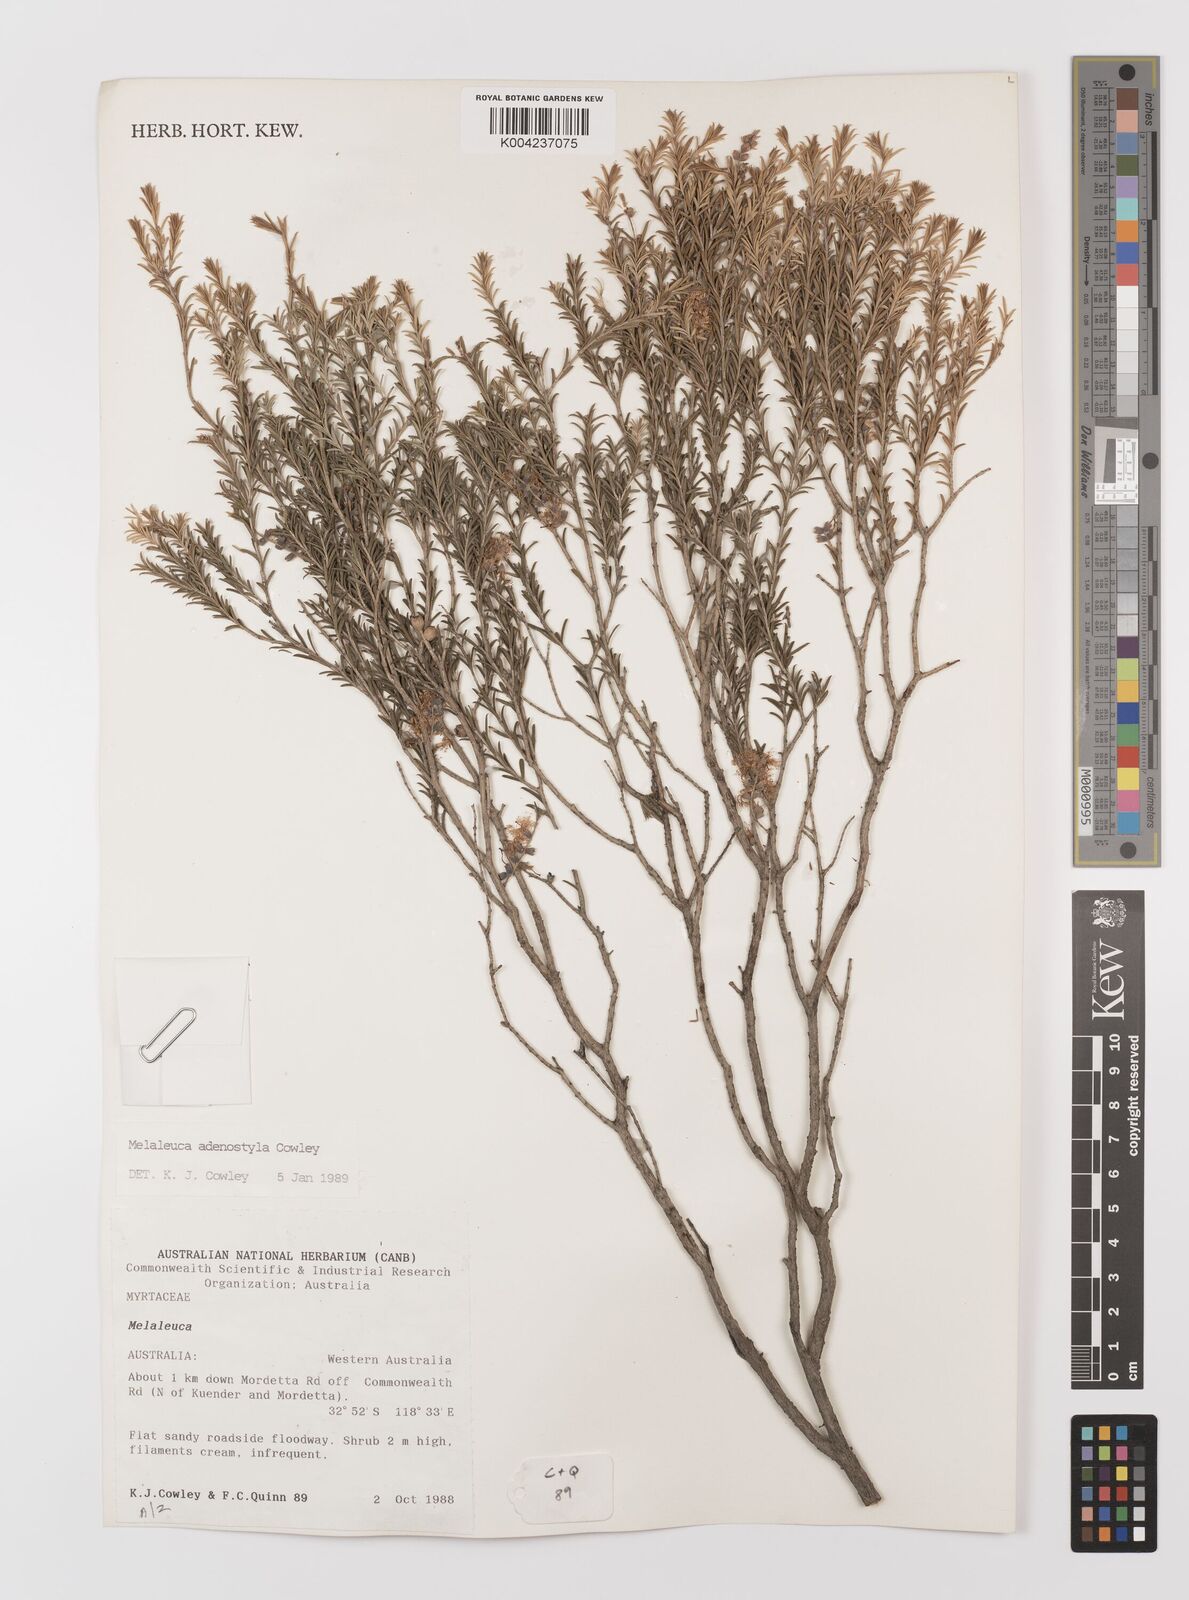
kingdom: Plantae
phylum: Tracheophyta
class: Magnoliopsida
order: Myrtales
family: Myrtaceae
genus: Melaleuca
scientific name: Melaleuca adenostyla
